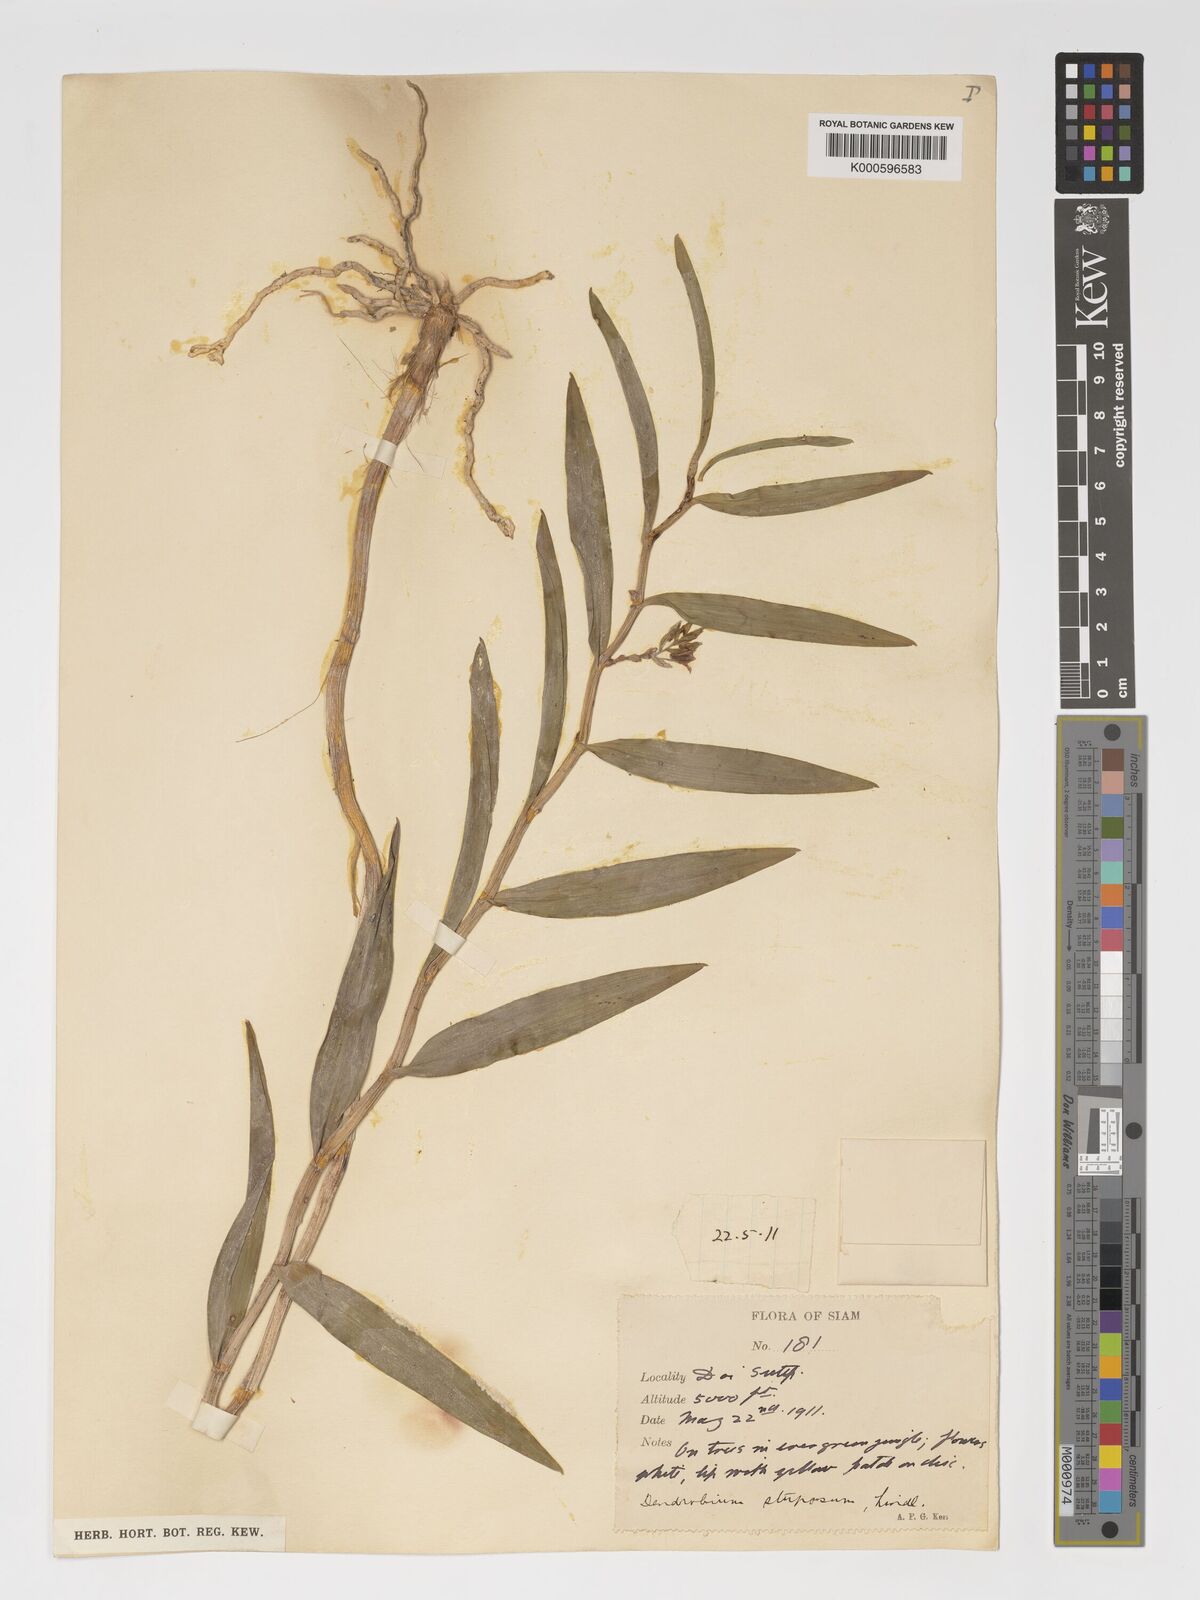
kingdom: Plantae
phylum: Tracheophyta
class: Liliopsida
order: Asparagales
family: Orchidaceae
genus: Dendrobium
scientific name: Dendrobium stuposum
